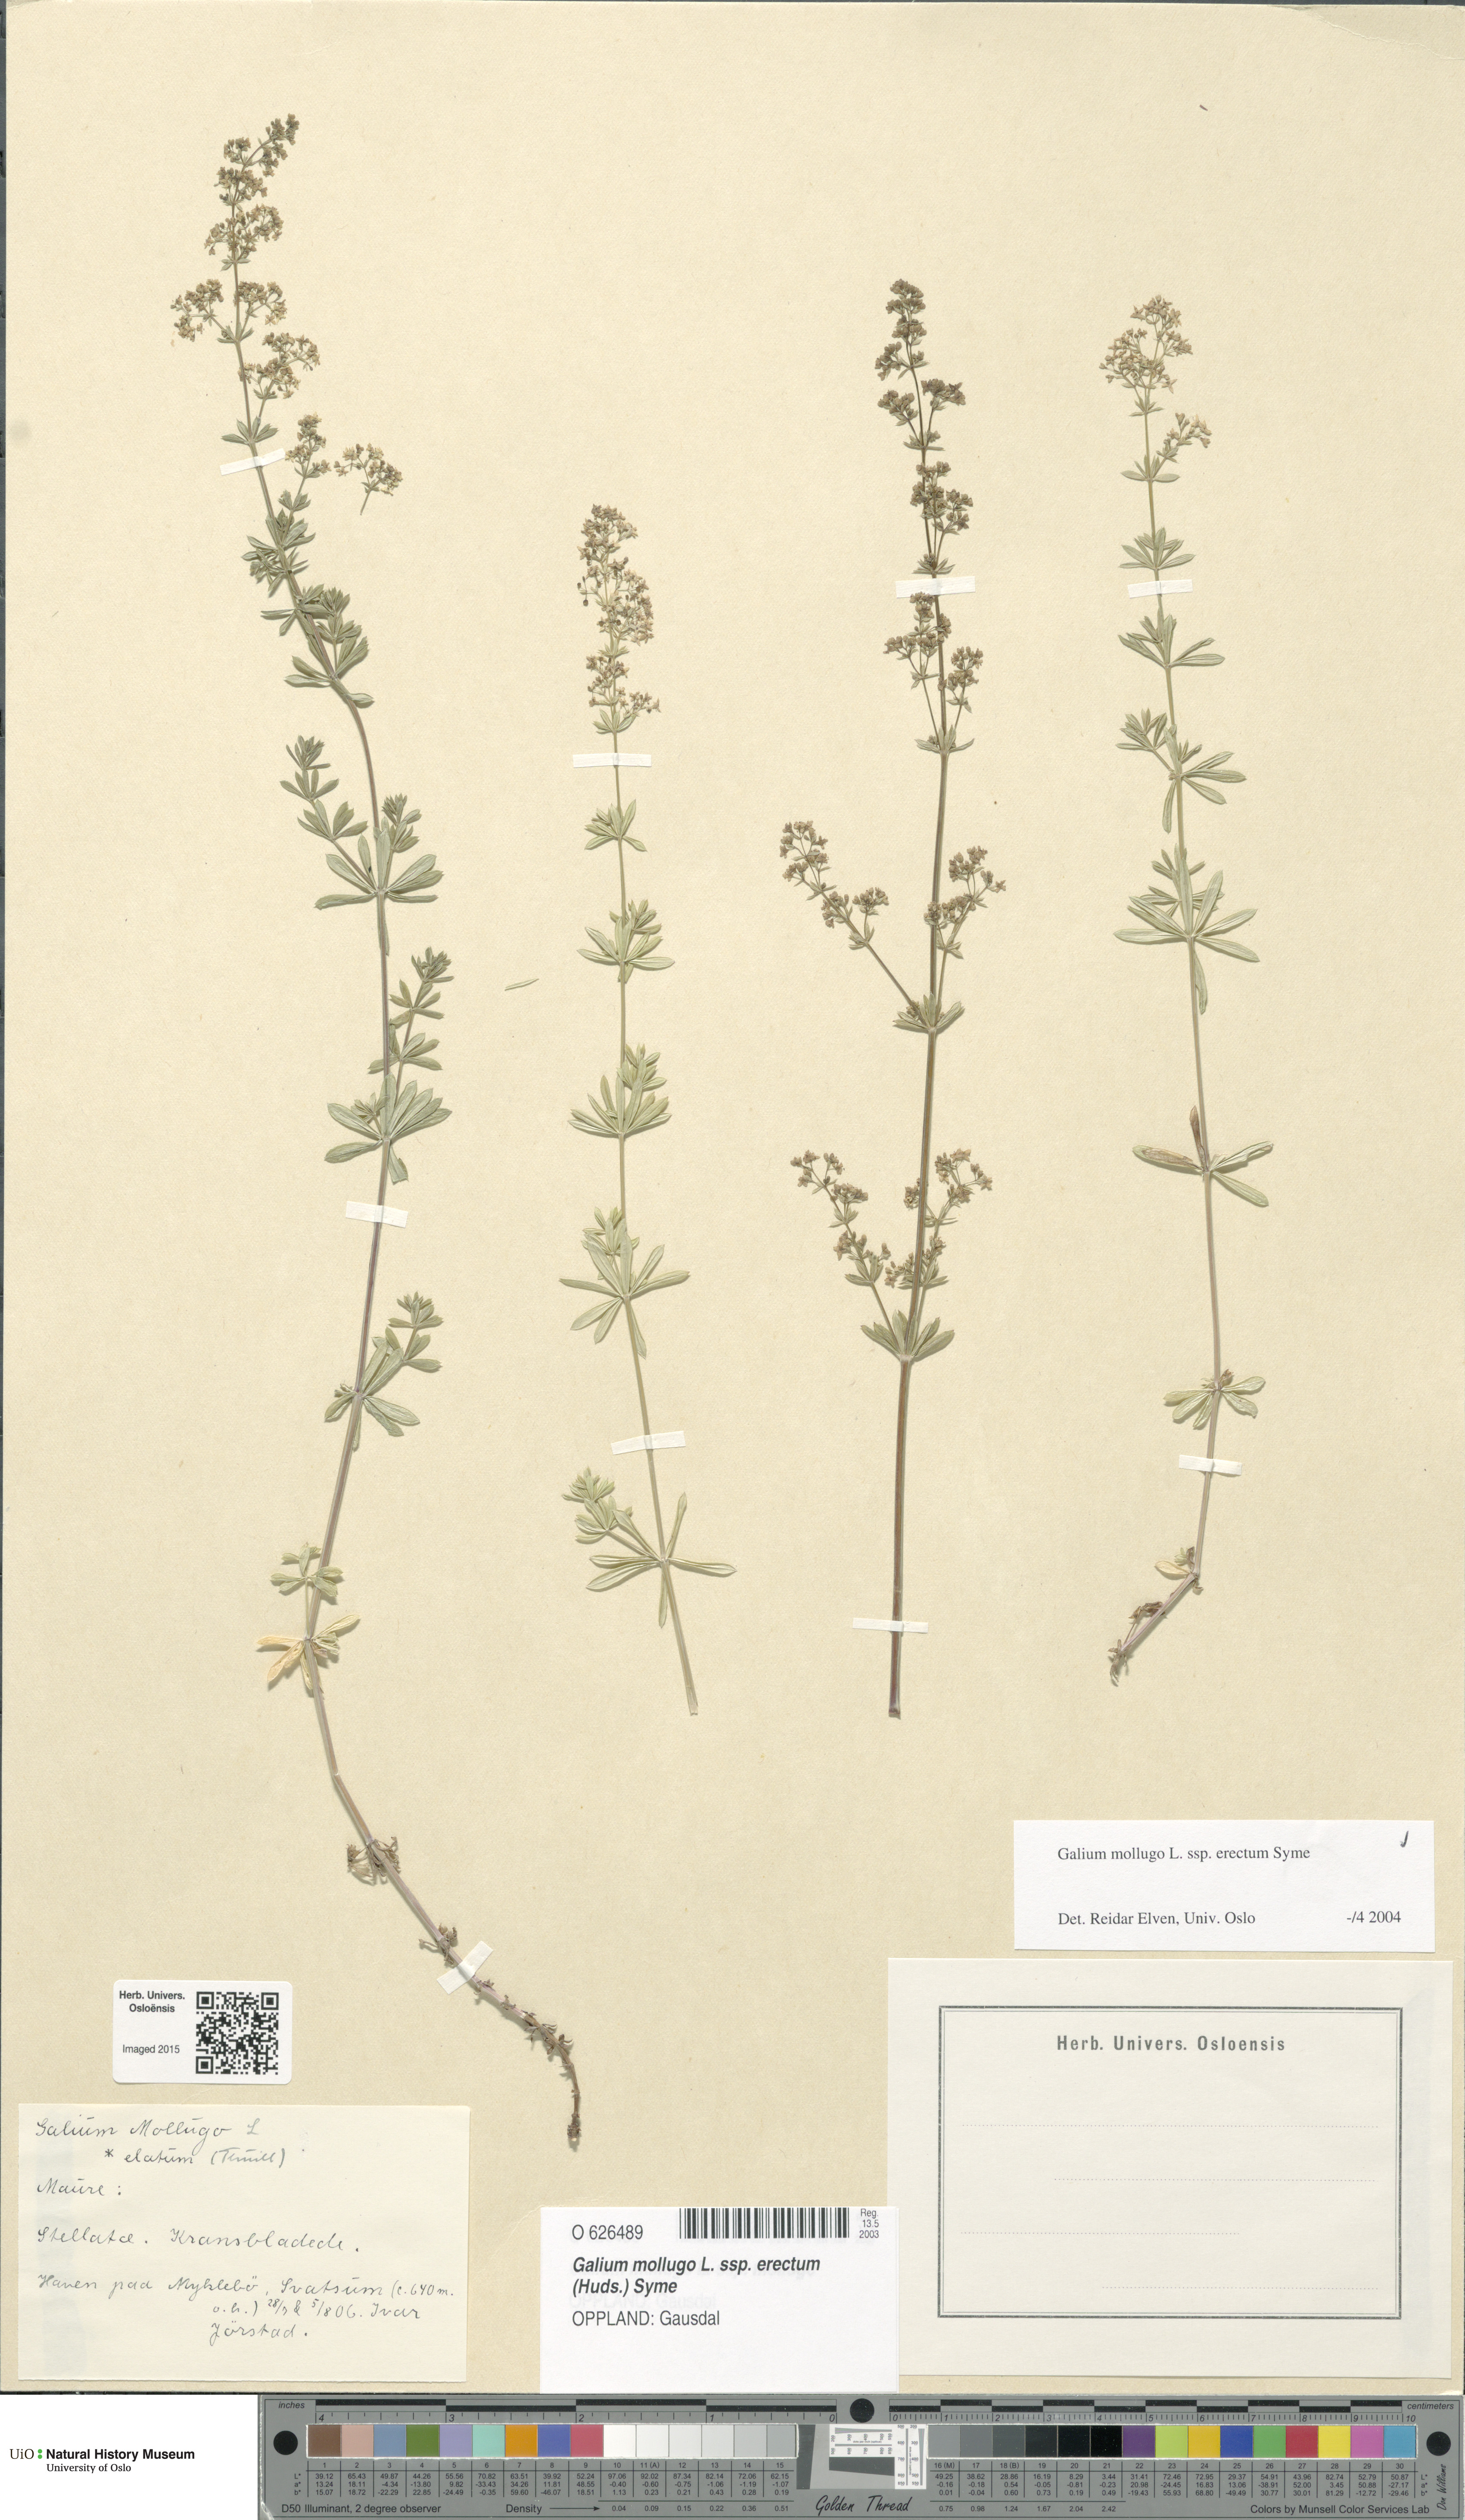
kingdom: Plantae
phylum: Tracheophyta
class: Magnoliopsida
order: Gentianales
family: Rubiaceae
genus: Galium
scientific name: Galium album
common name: White bedstraw
